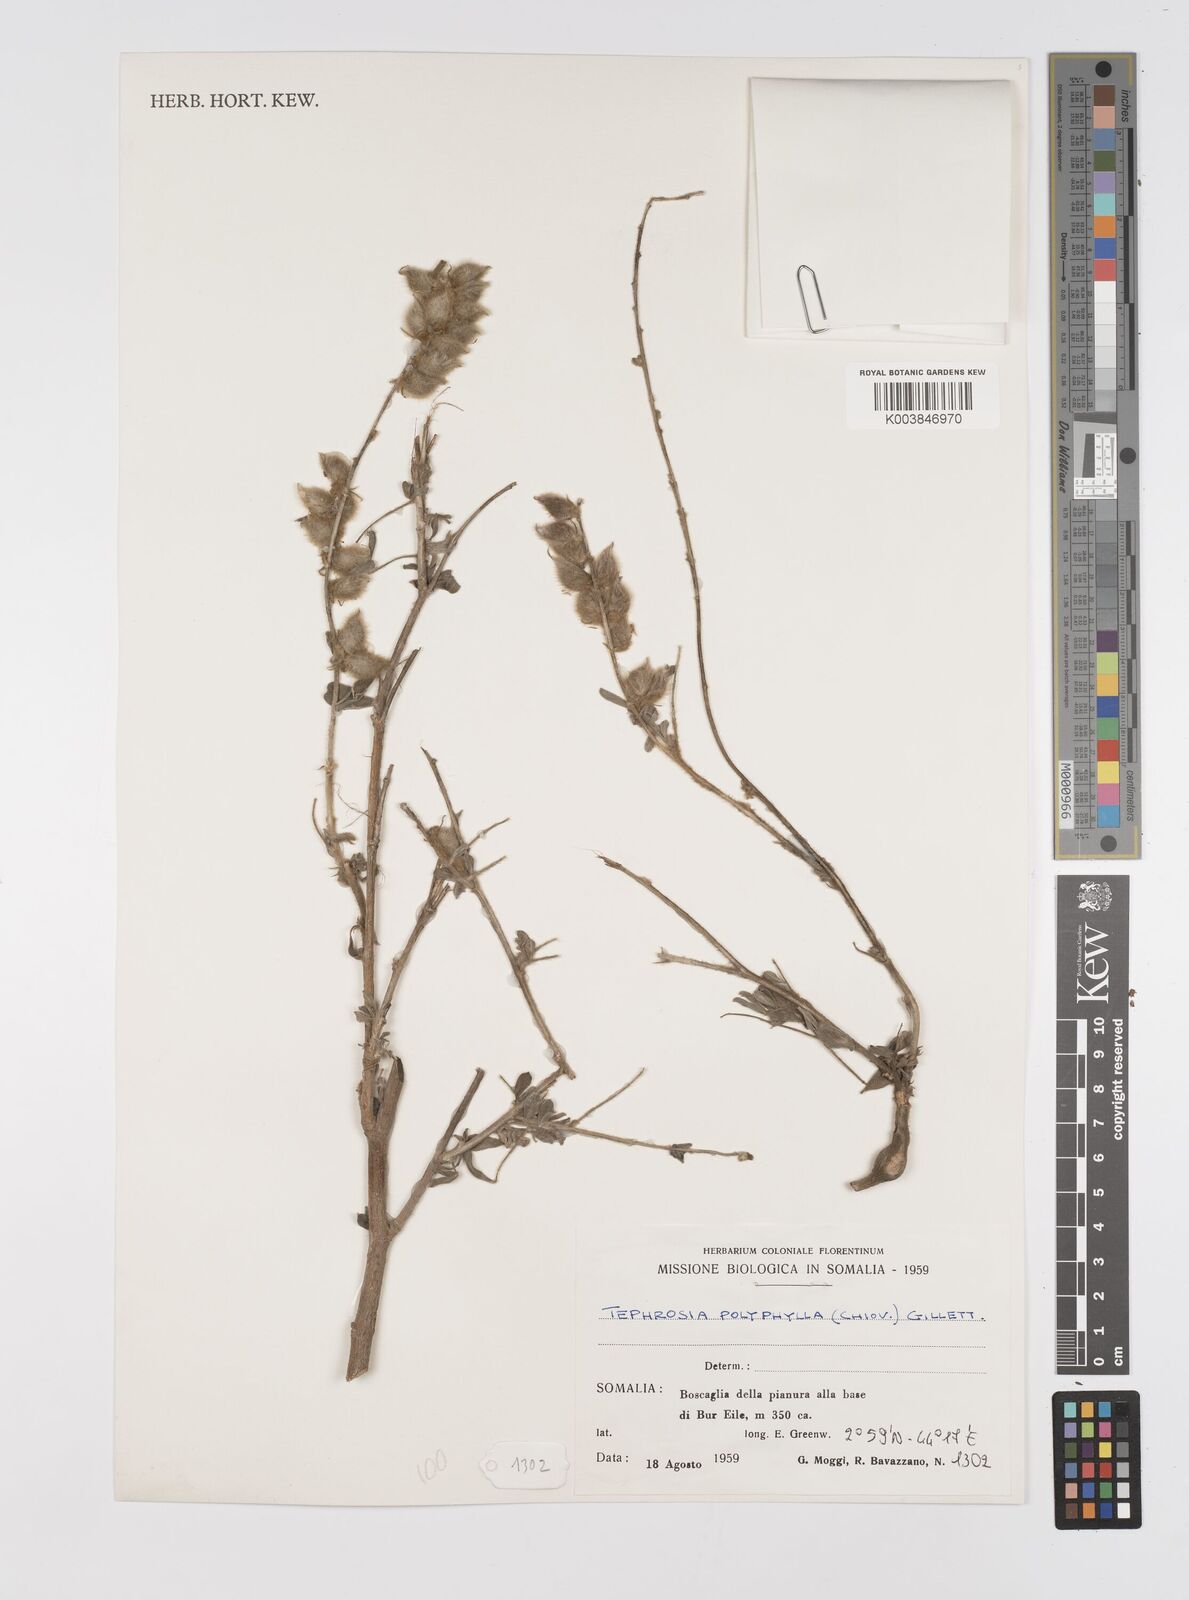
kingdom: Plantae
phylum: Tracheophyta
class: Magnoliopsida
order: Fabales
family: Fabaceae
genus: Tephrosia
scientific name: Tephrosia polyphylla
